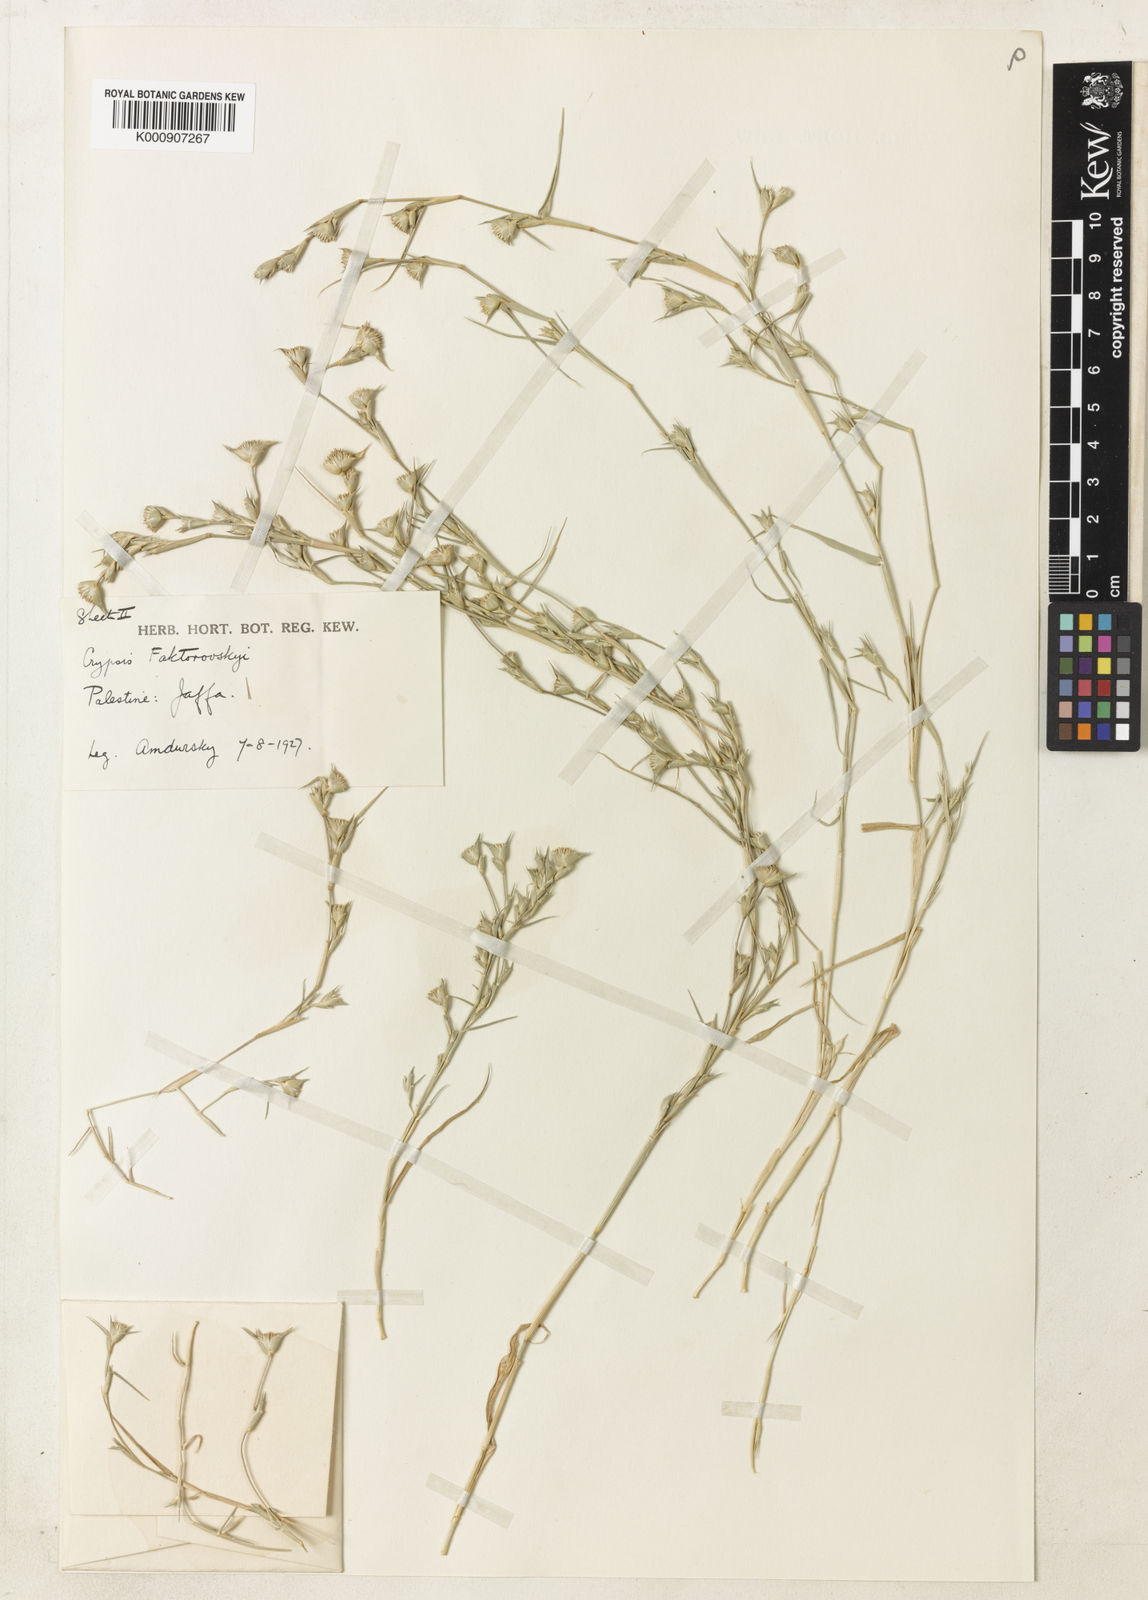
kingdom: Plantae
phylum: Tracheophyta
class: Liliopsida
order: Poales
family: Poaceae
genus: Sporobolus
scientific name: Sporobolus factorovskyi
